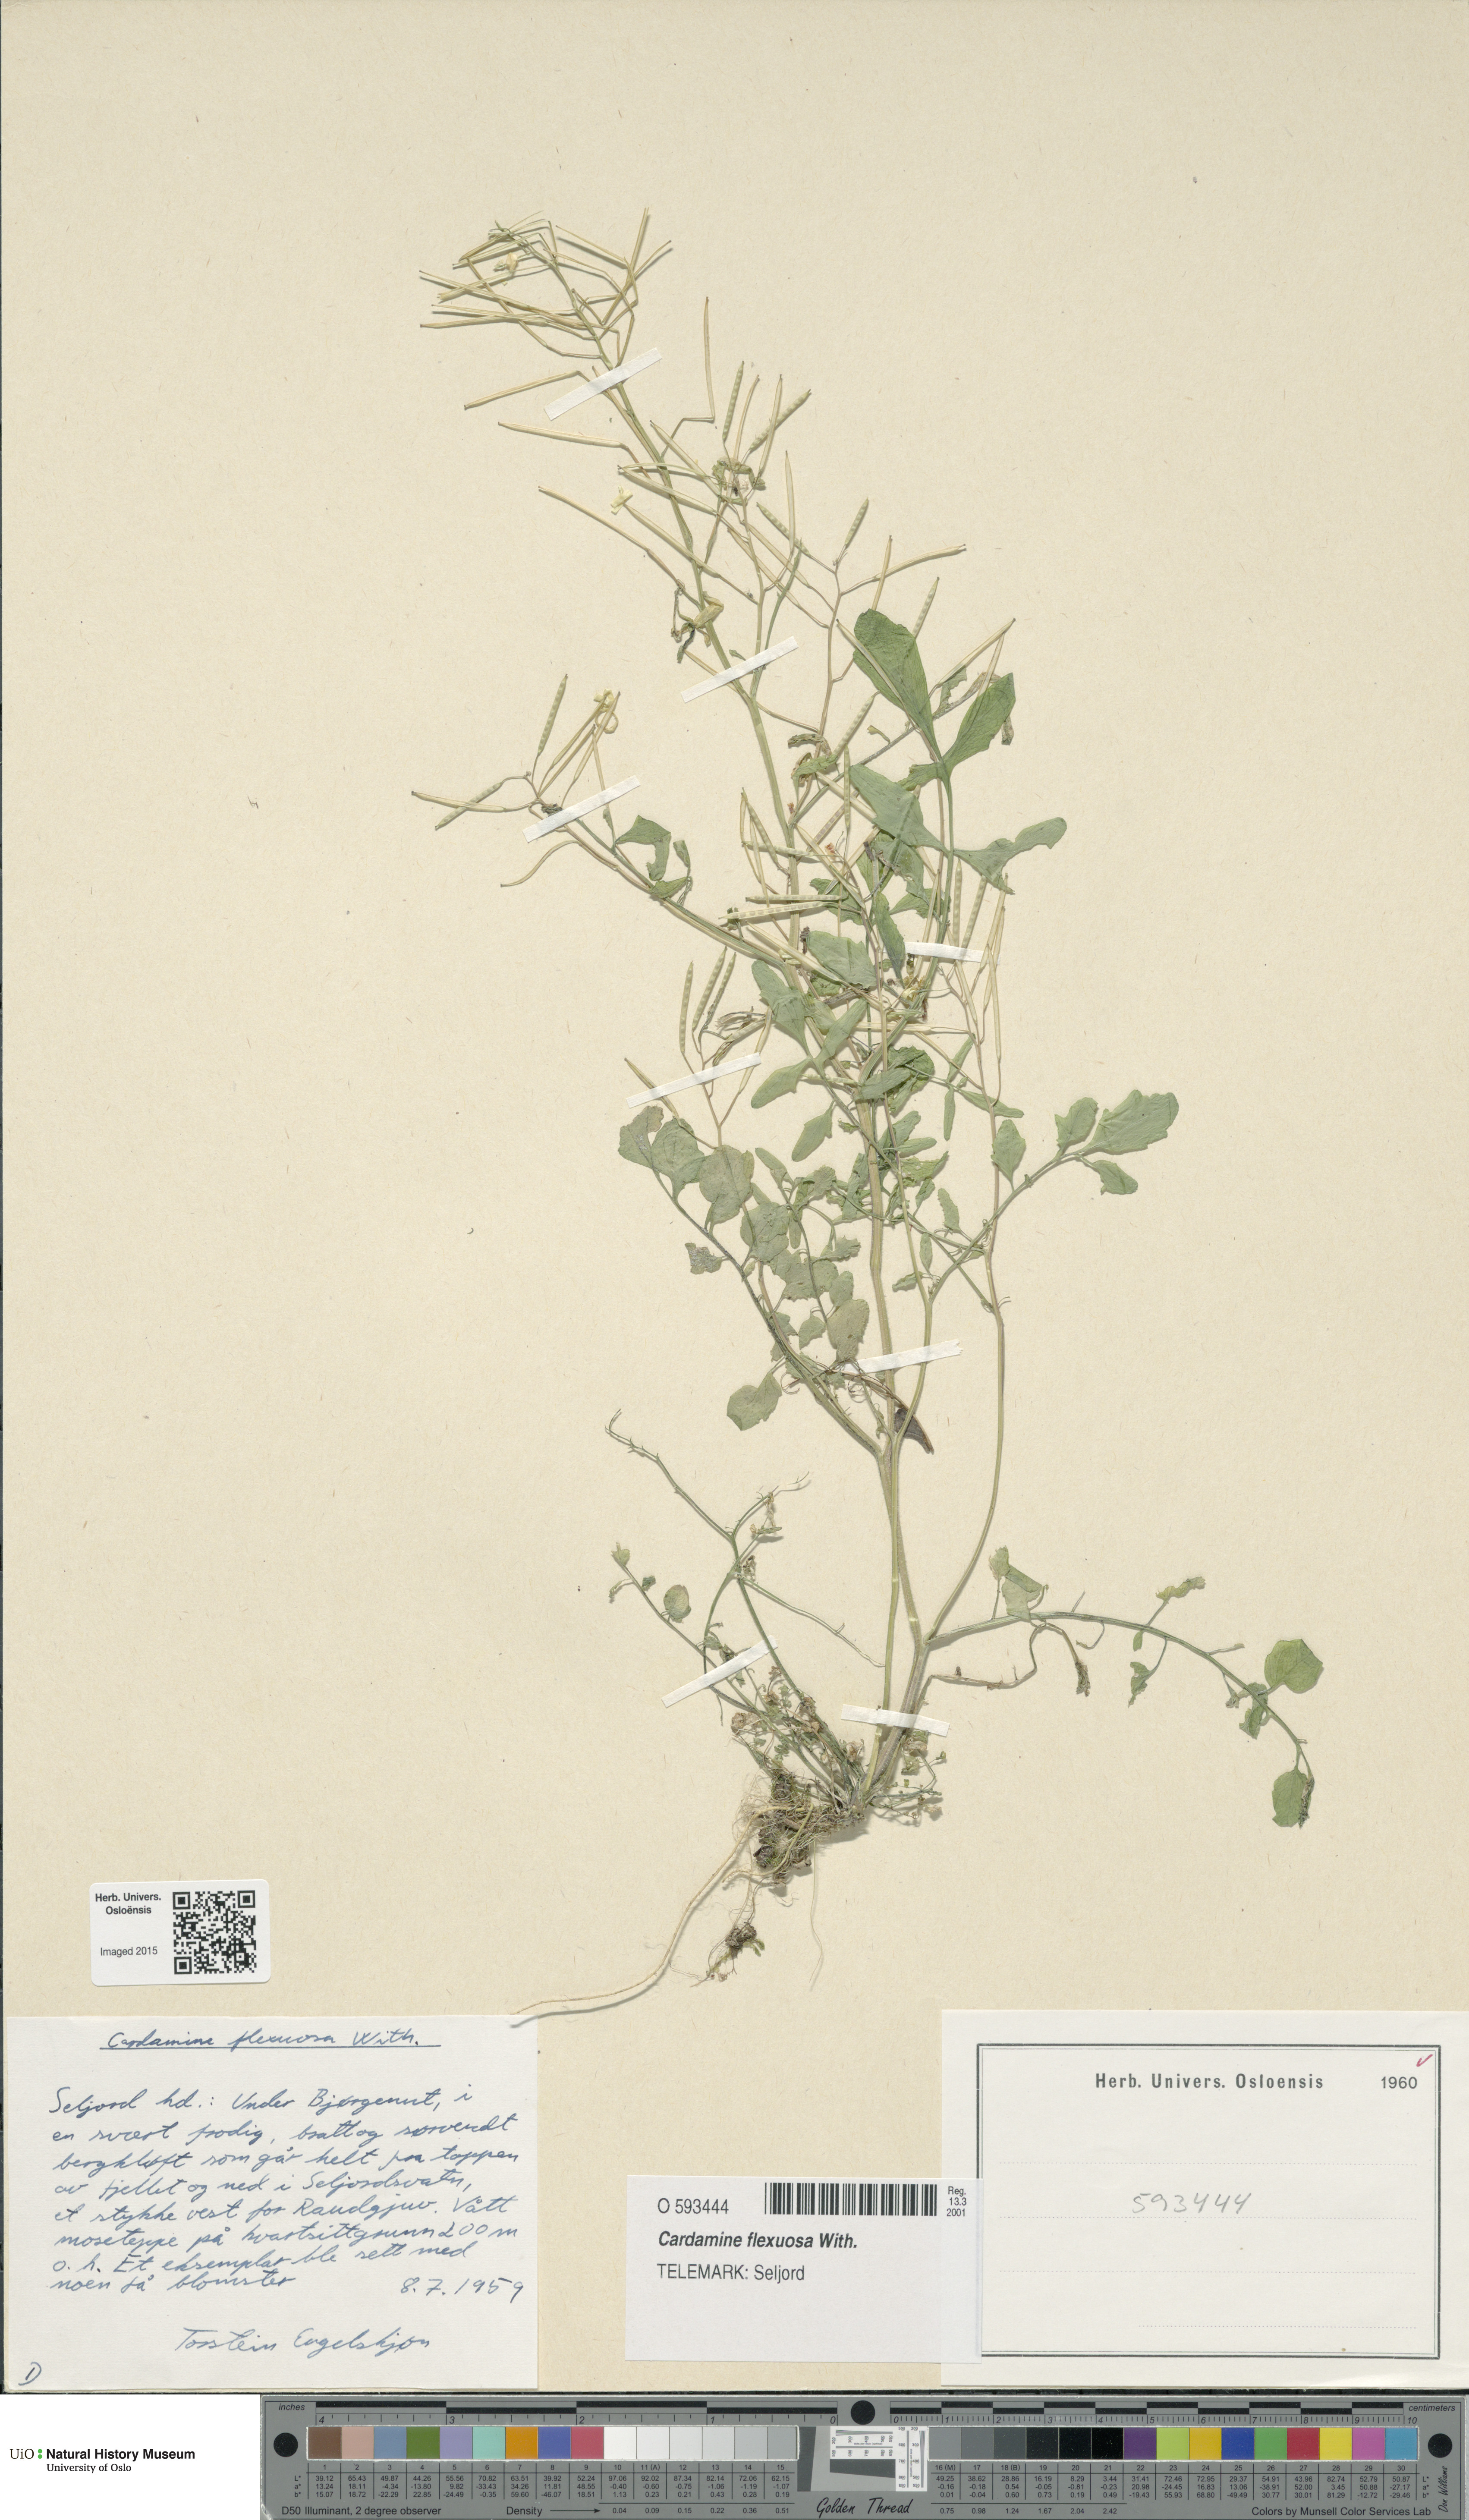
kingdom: Plantae
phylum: Tracheophyta
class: Magnoliopsida
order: Brassicales
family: Brassicaceae
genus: Cardamine
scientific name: Cardamine flexuosa
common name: Woodland bittercress
